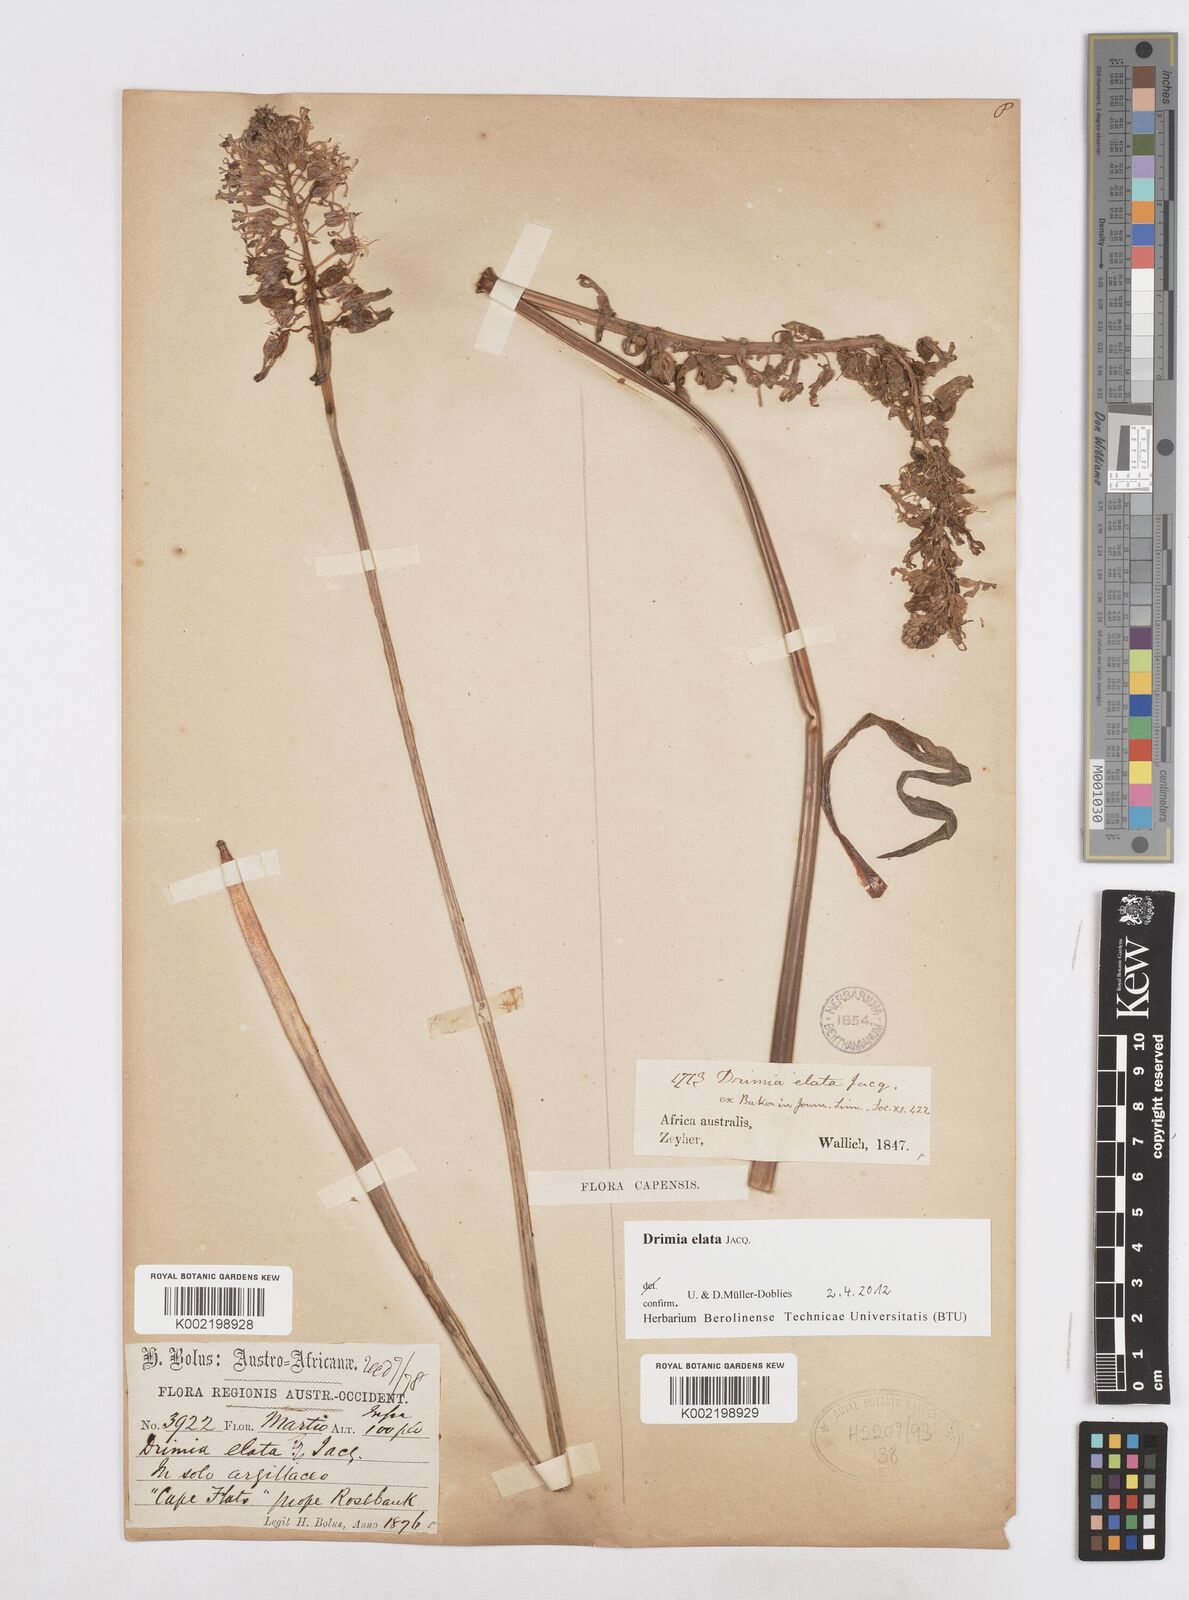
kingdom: Plantae
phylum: Tracheophyta
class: Liliopsida
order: Asparagales
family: Asparagaceae
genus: Drimia
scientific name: Drimia elata
